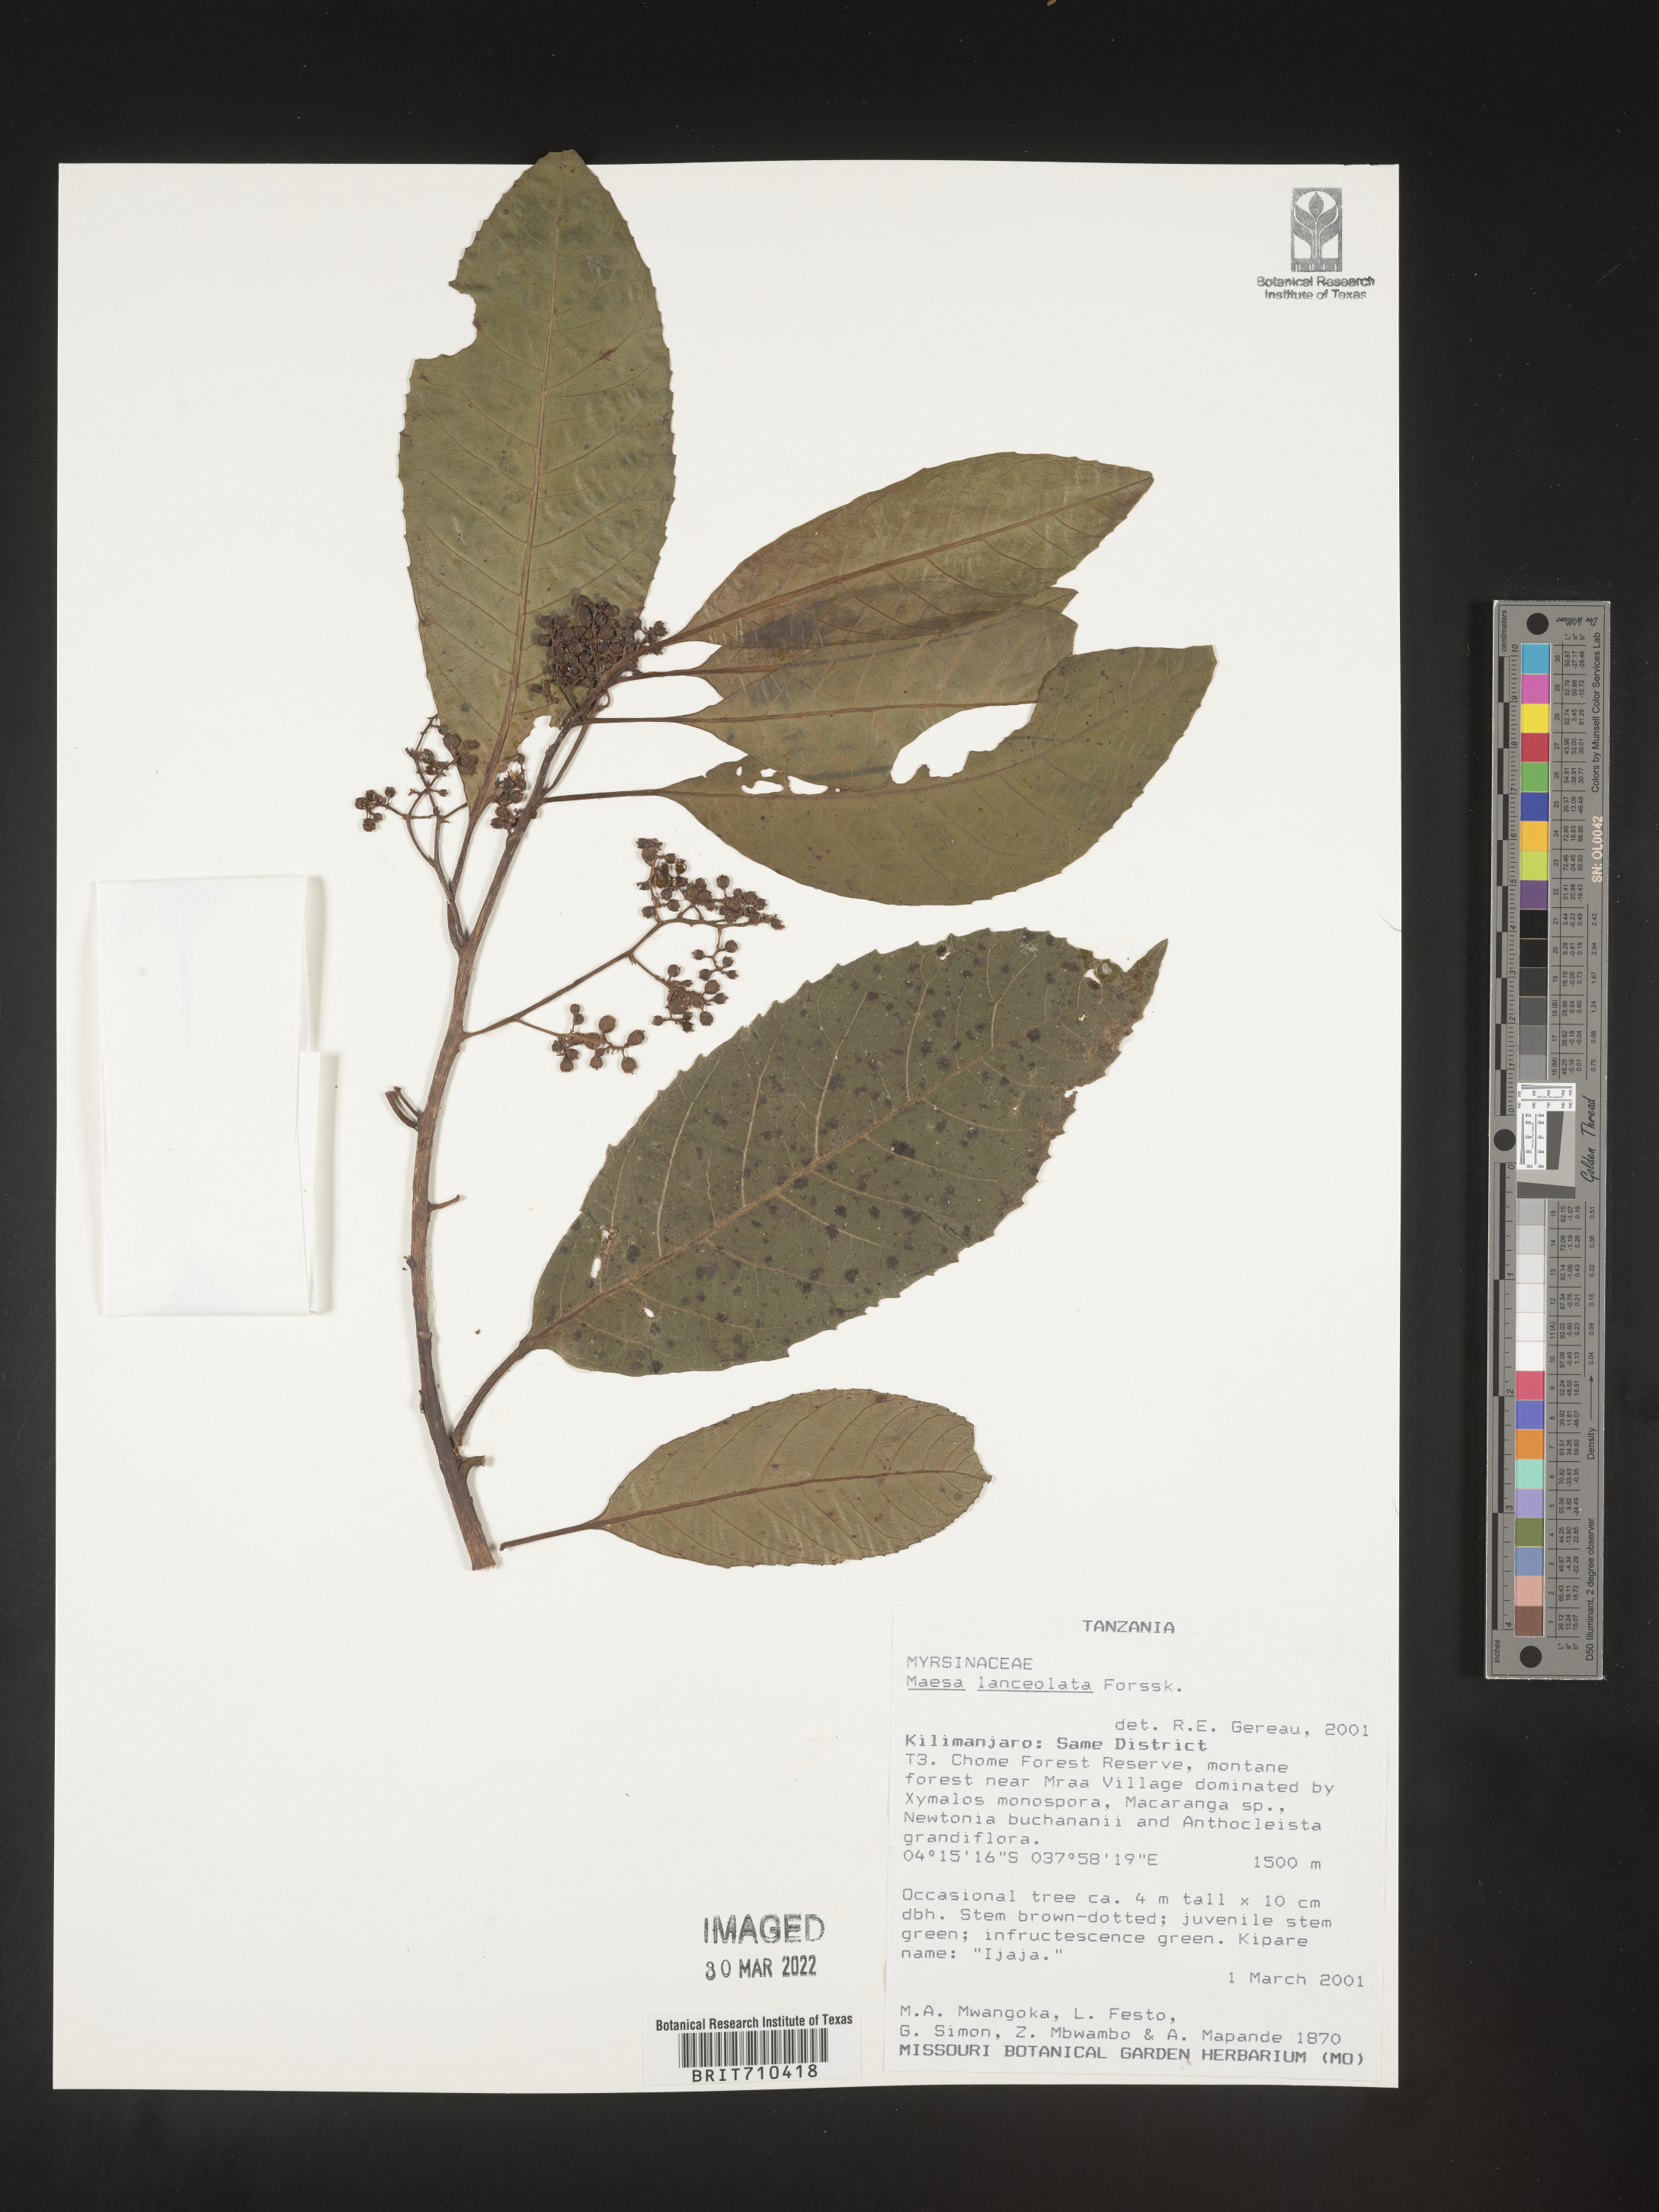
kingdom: Plantae
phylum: Tracheophyta
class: Magnoliopsida
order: Ericales
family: Primulaceae
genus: Maesa
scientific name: Maesa
